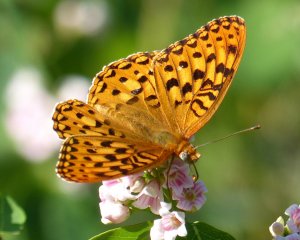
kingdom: Animalia
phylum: Arthropoda
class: Insecta
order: Lepidoptera
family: Nymphalidae
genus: Speyeria
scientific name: Speyeria zerene
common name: Zerene Fritillary
